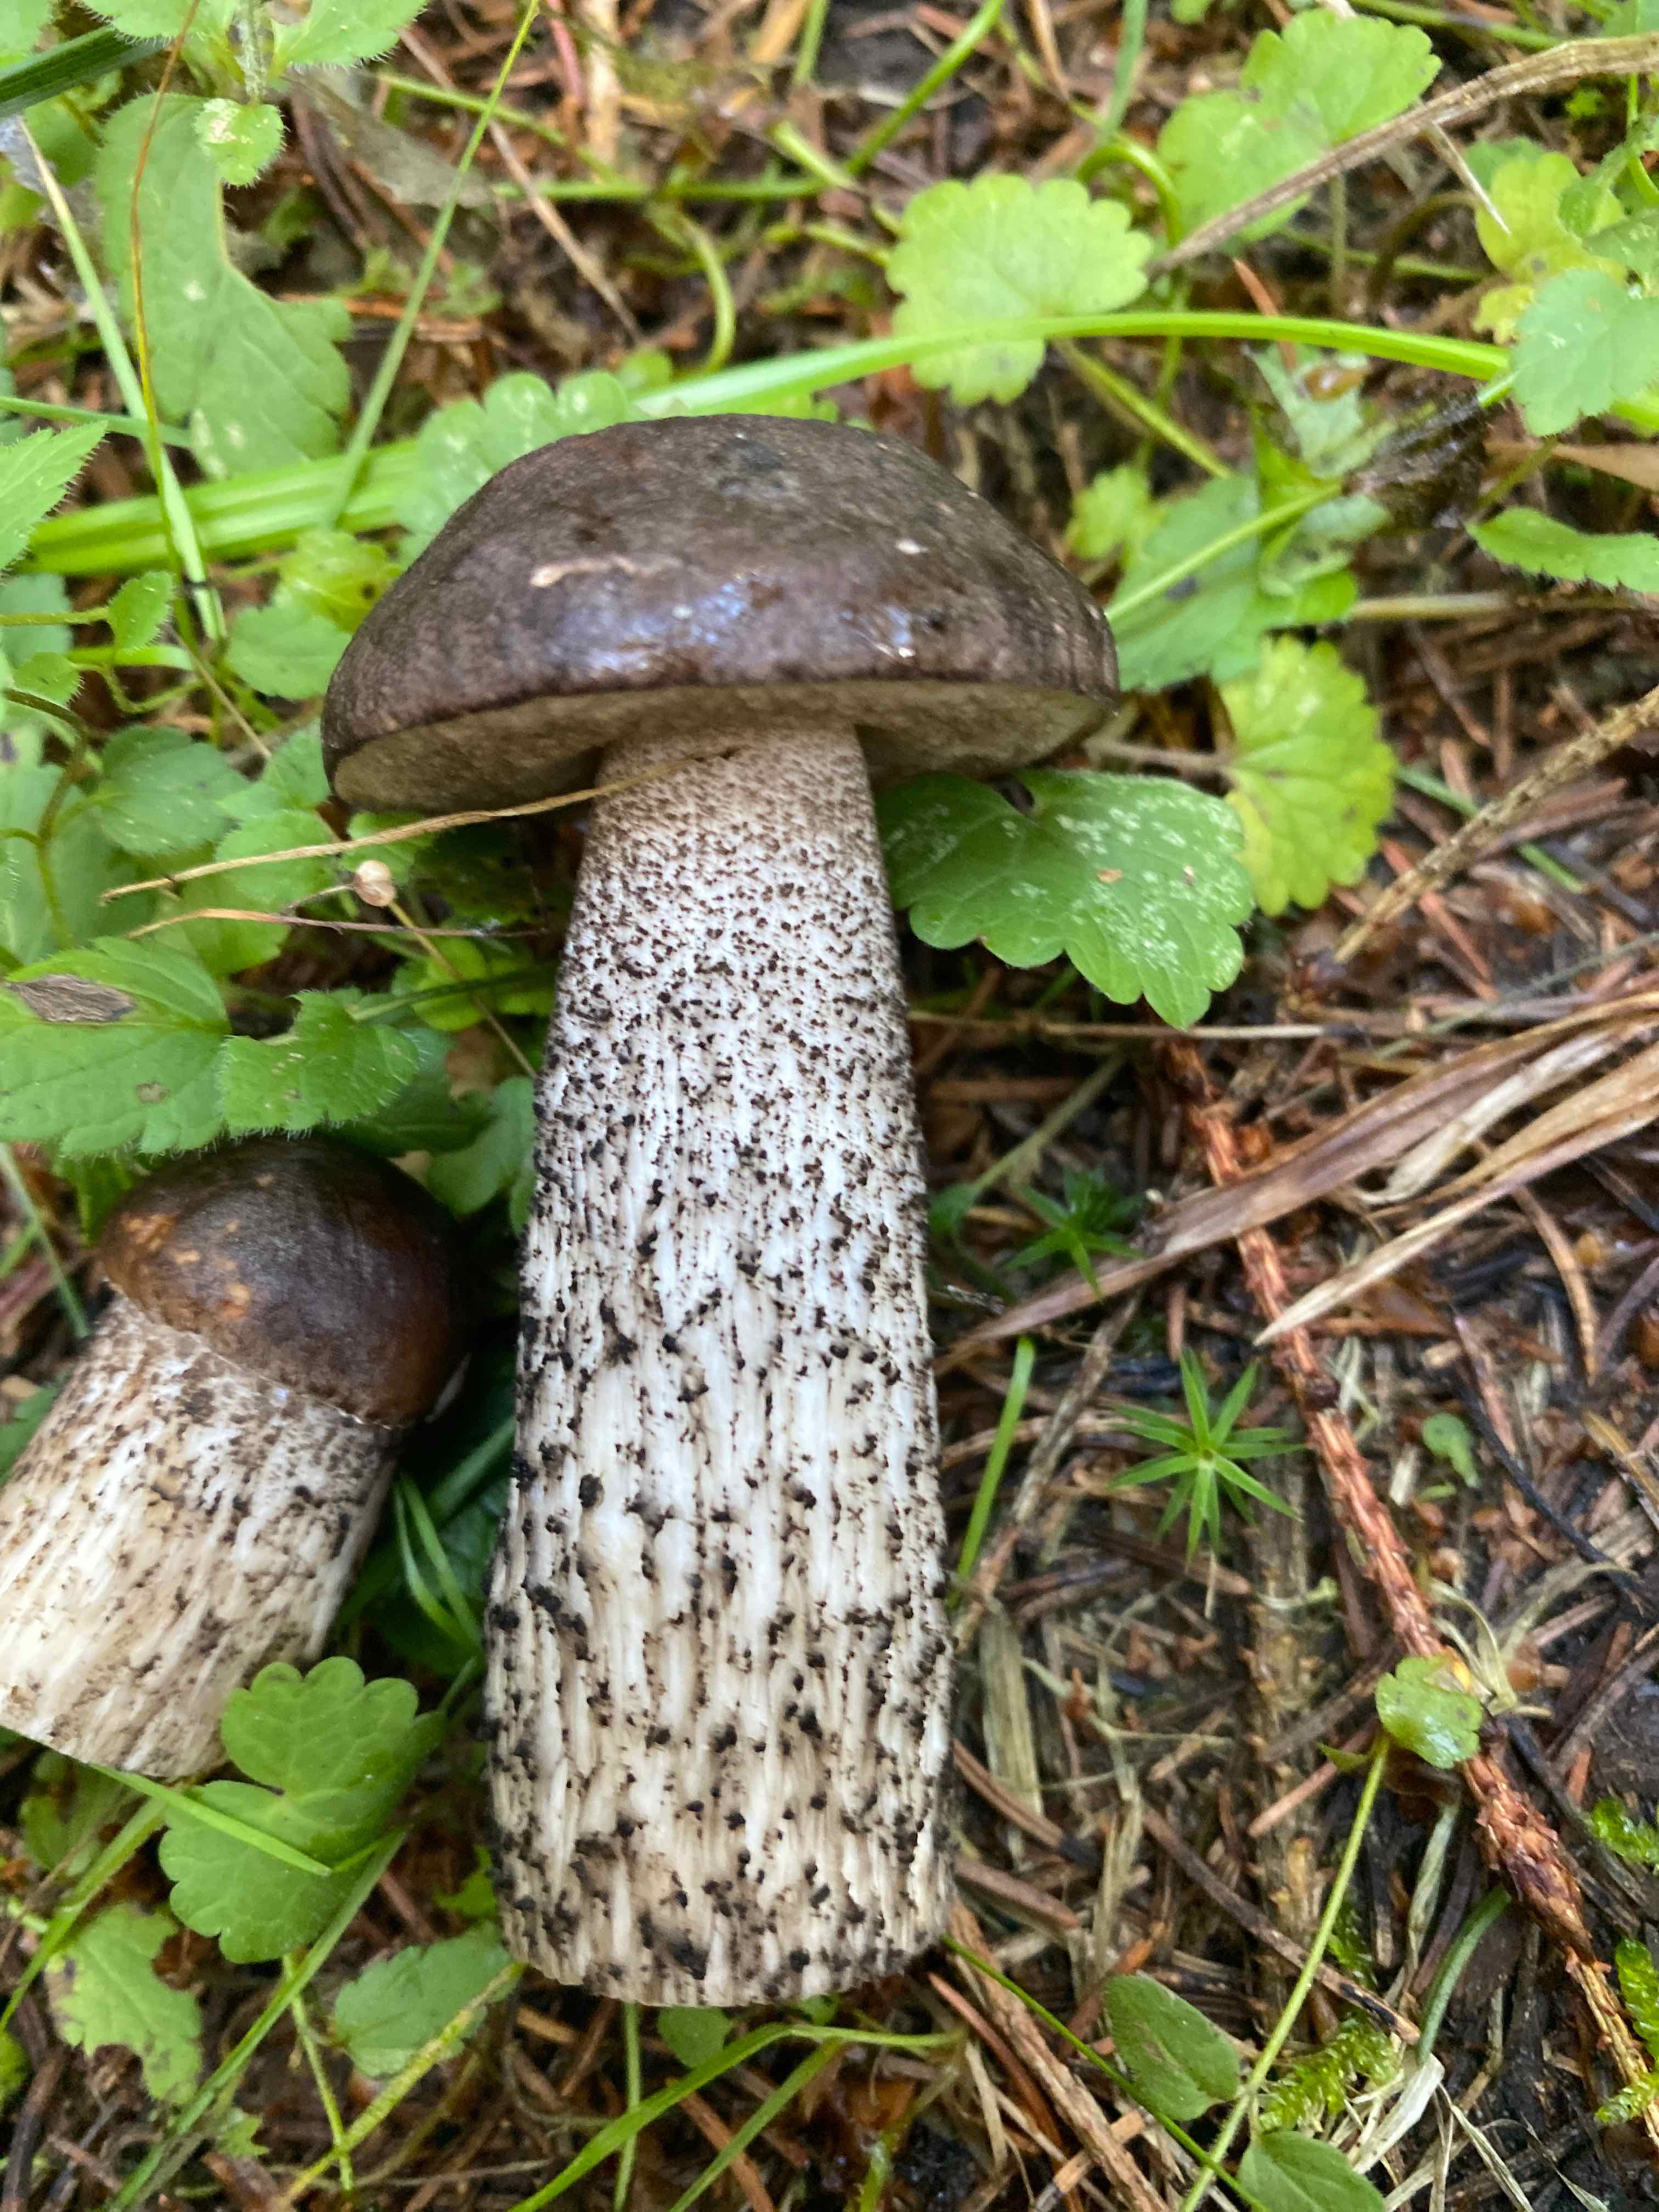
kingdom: Fungi
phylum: Basidiomycota
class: Agaricomycetes
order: Boletales
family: Boletaceae
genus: Leccinum
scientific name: Leccinum scabrum
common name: brun skælrørhat
